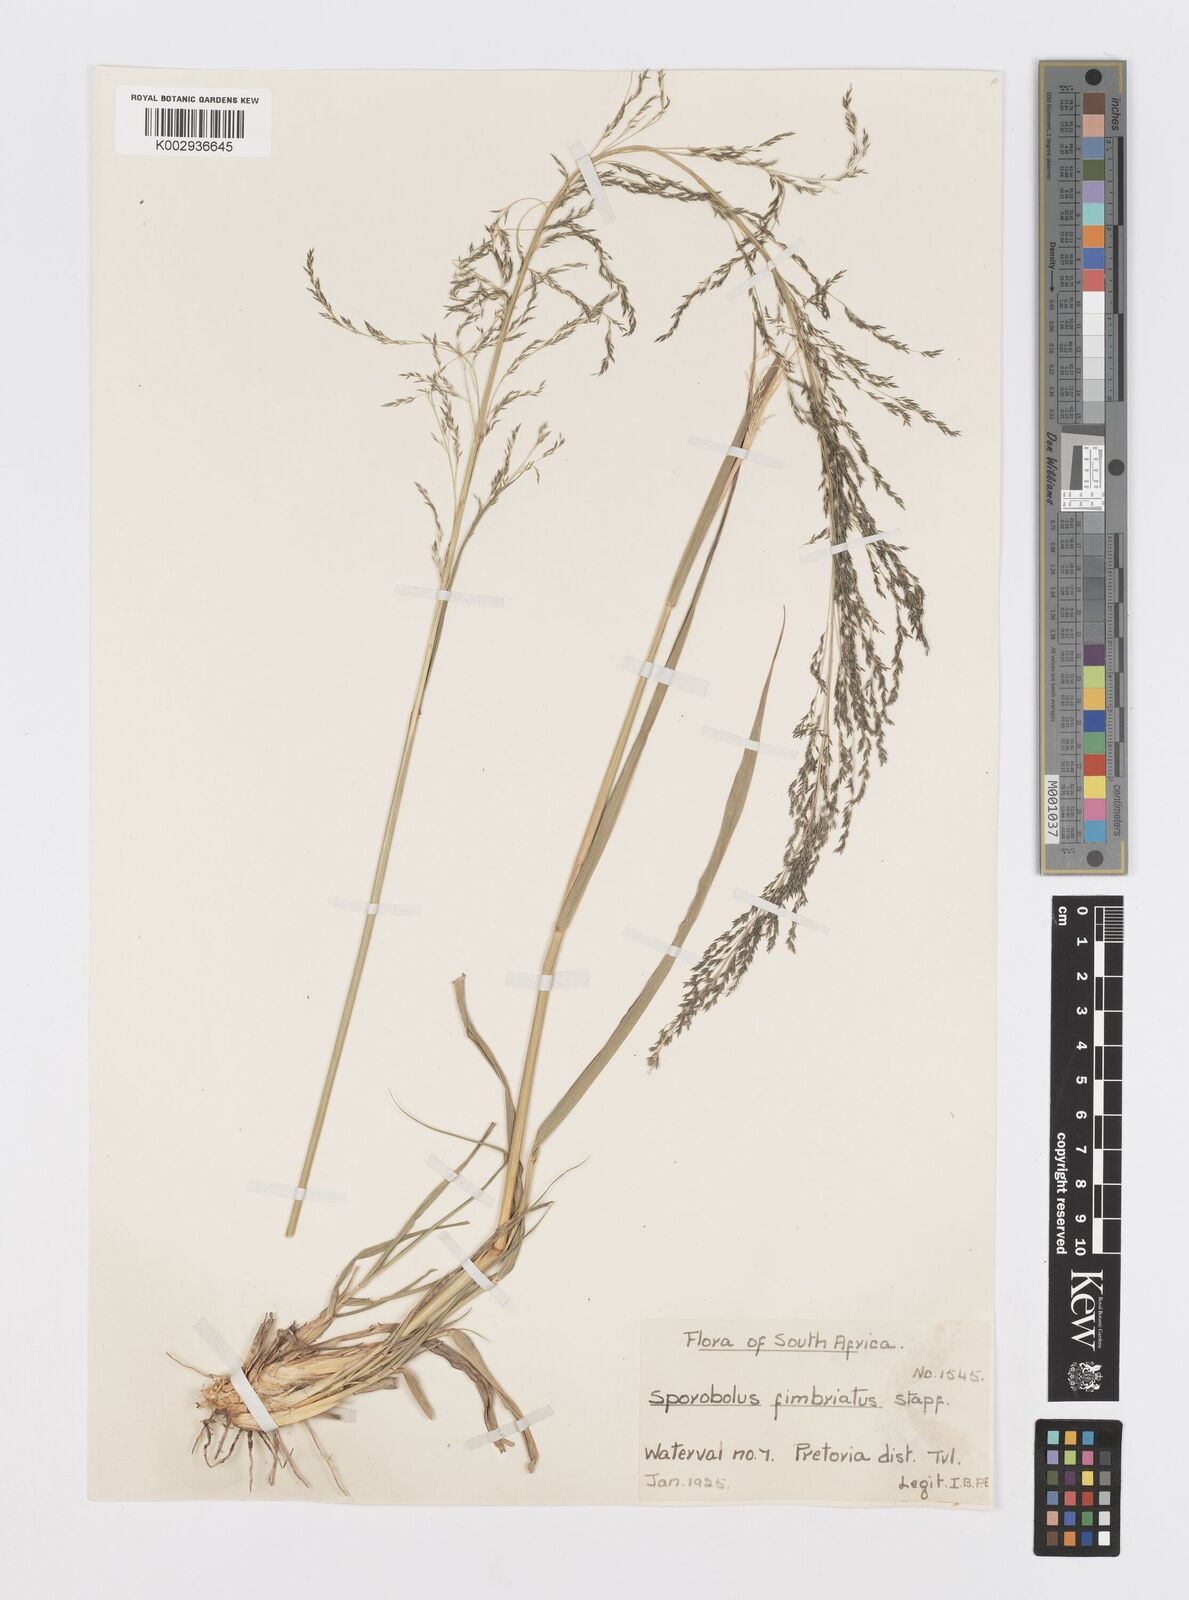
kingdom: Plantae
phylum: Tracheophyta
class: Liliopsida
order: Poales
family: Poaceae
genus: Sporobolus
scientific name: Sporobolus fimbriatus
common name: Fringed dropseed
